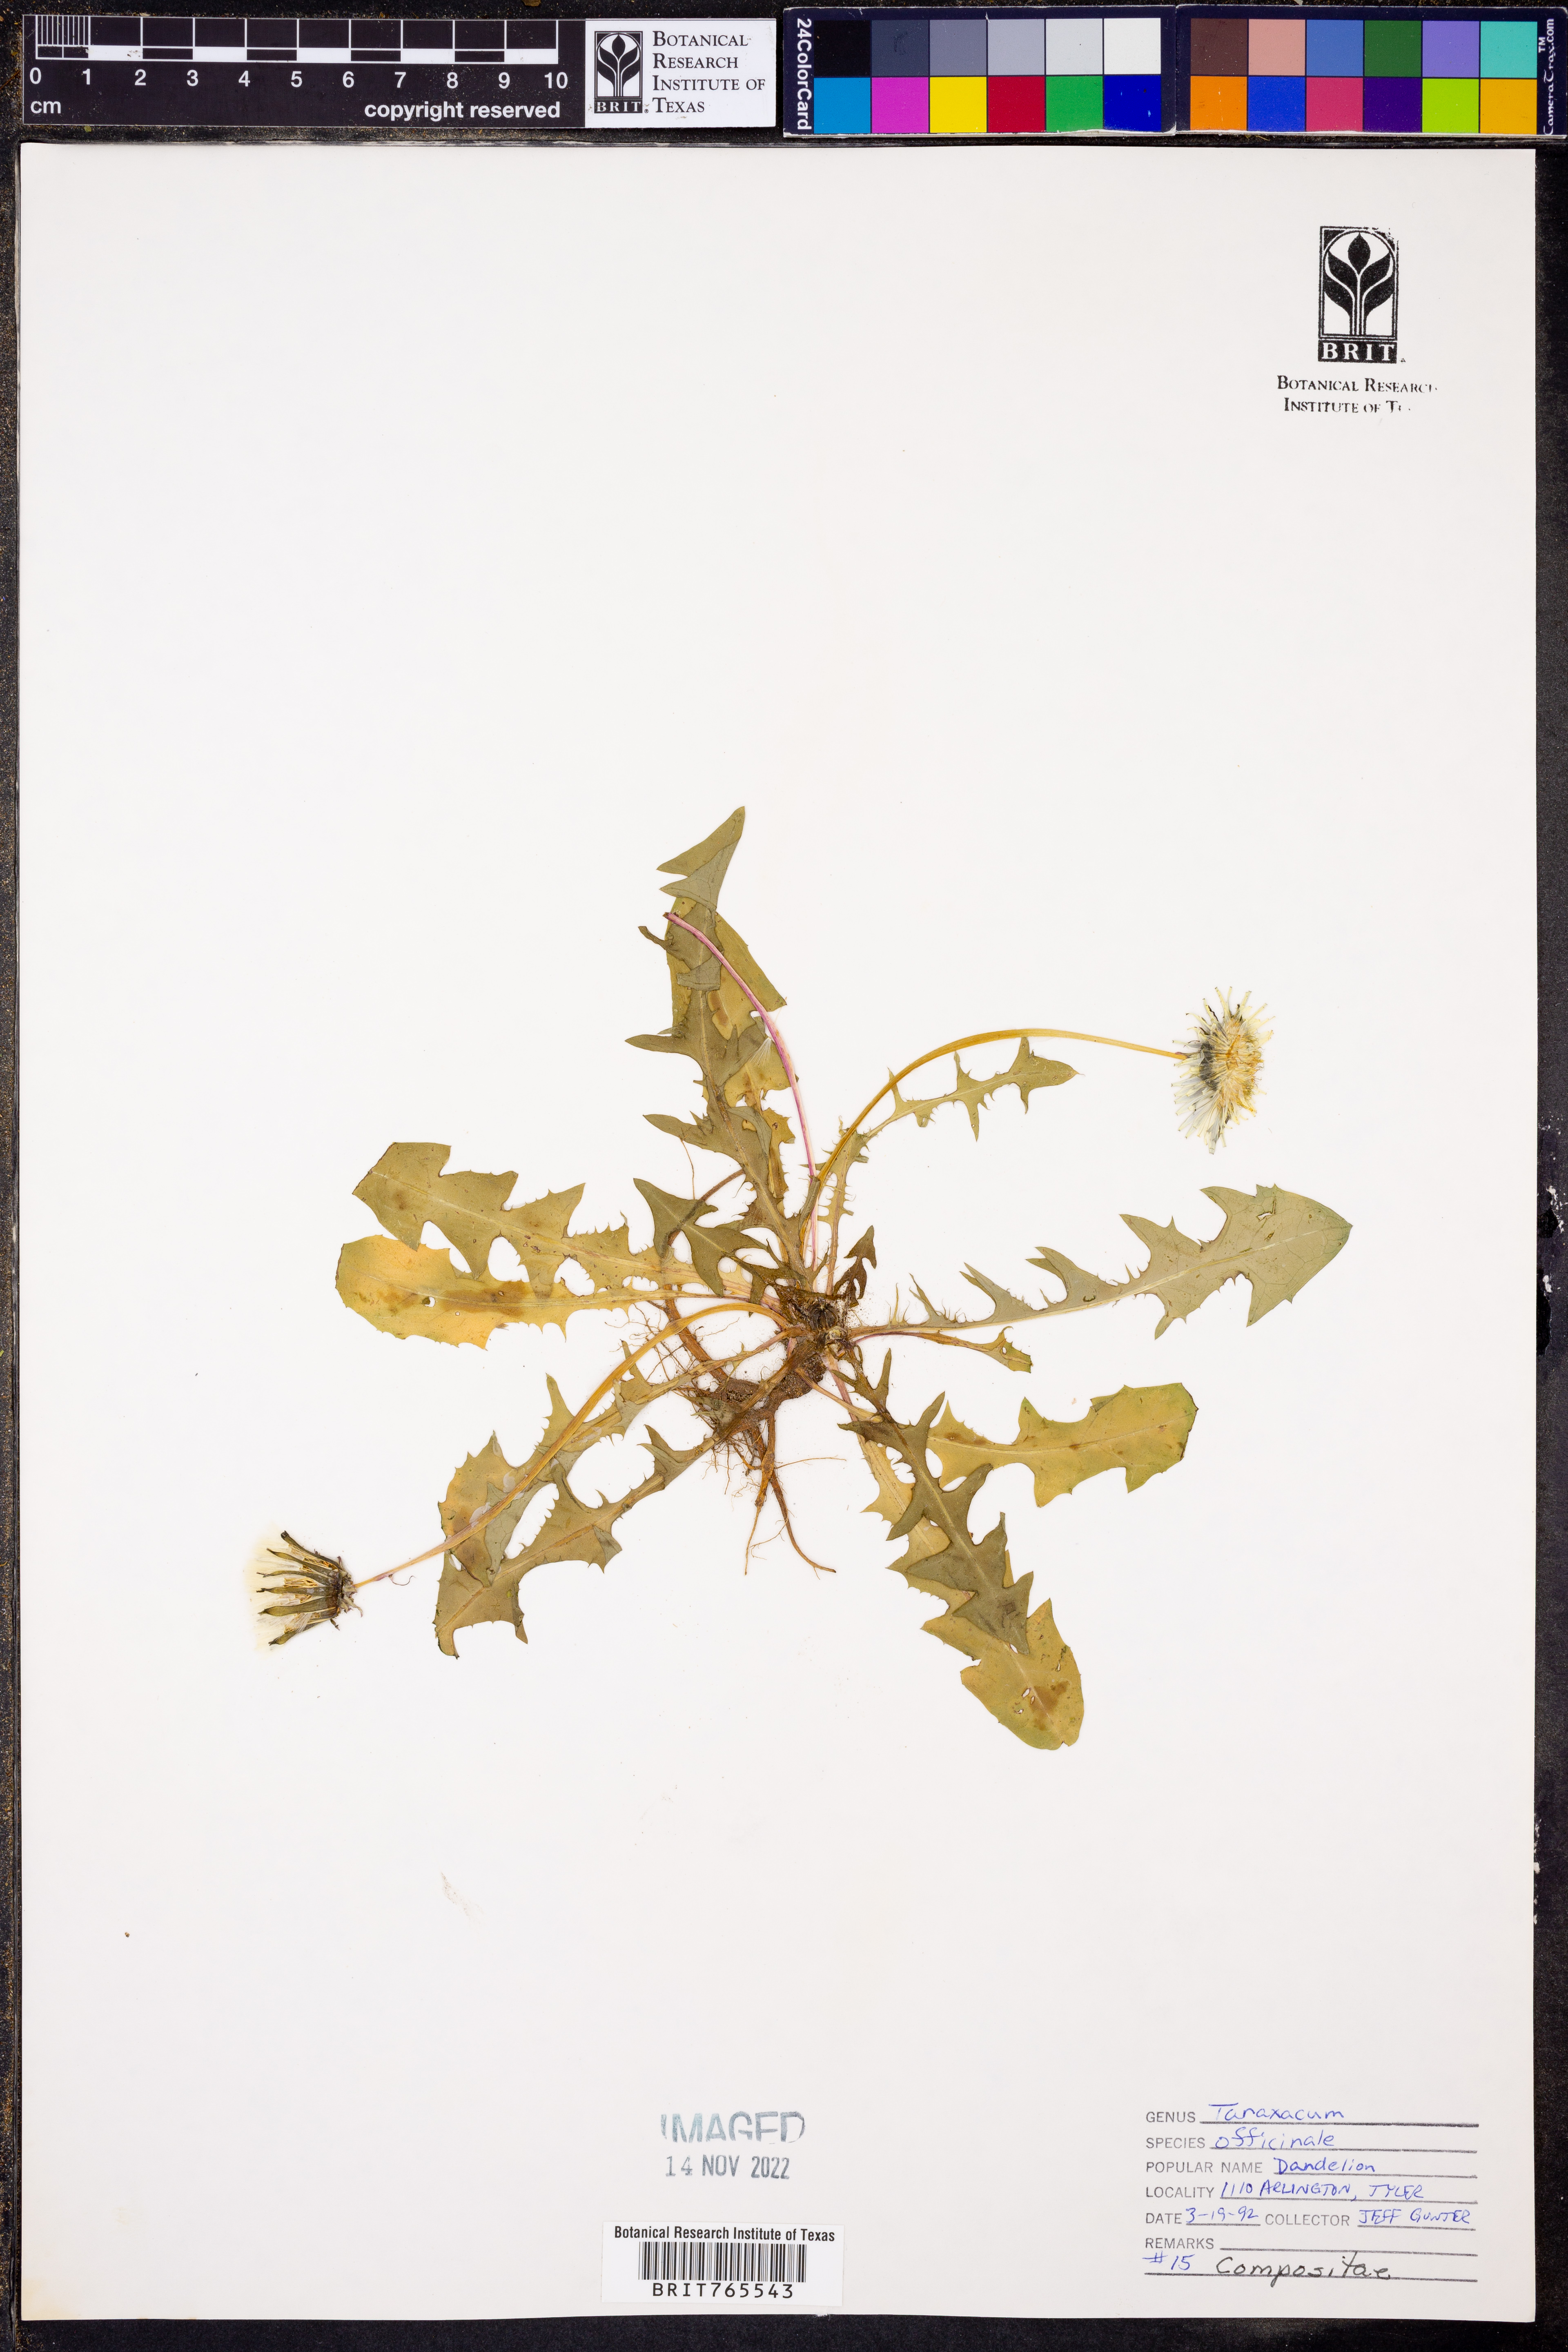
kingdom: Plantae
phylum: Tracheophyta
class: Magnoliopsida
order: Asterales
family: Asteraceae
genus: Taraxacum
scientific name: Taraxacum officinale
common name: Common dandelion
